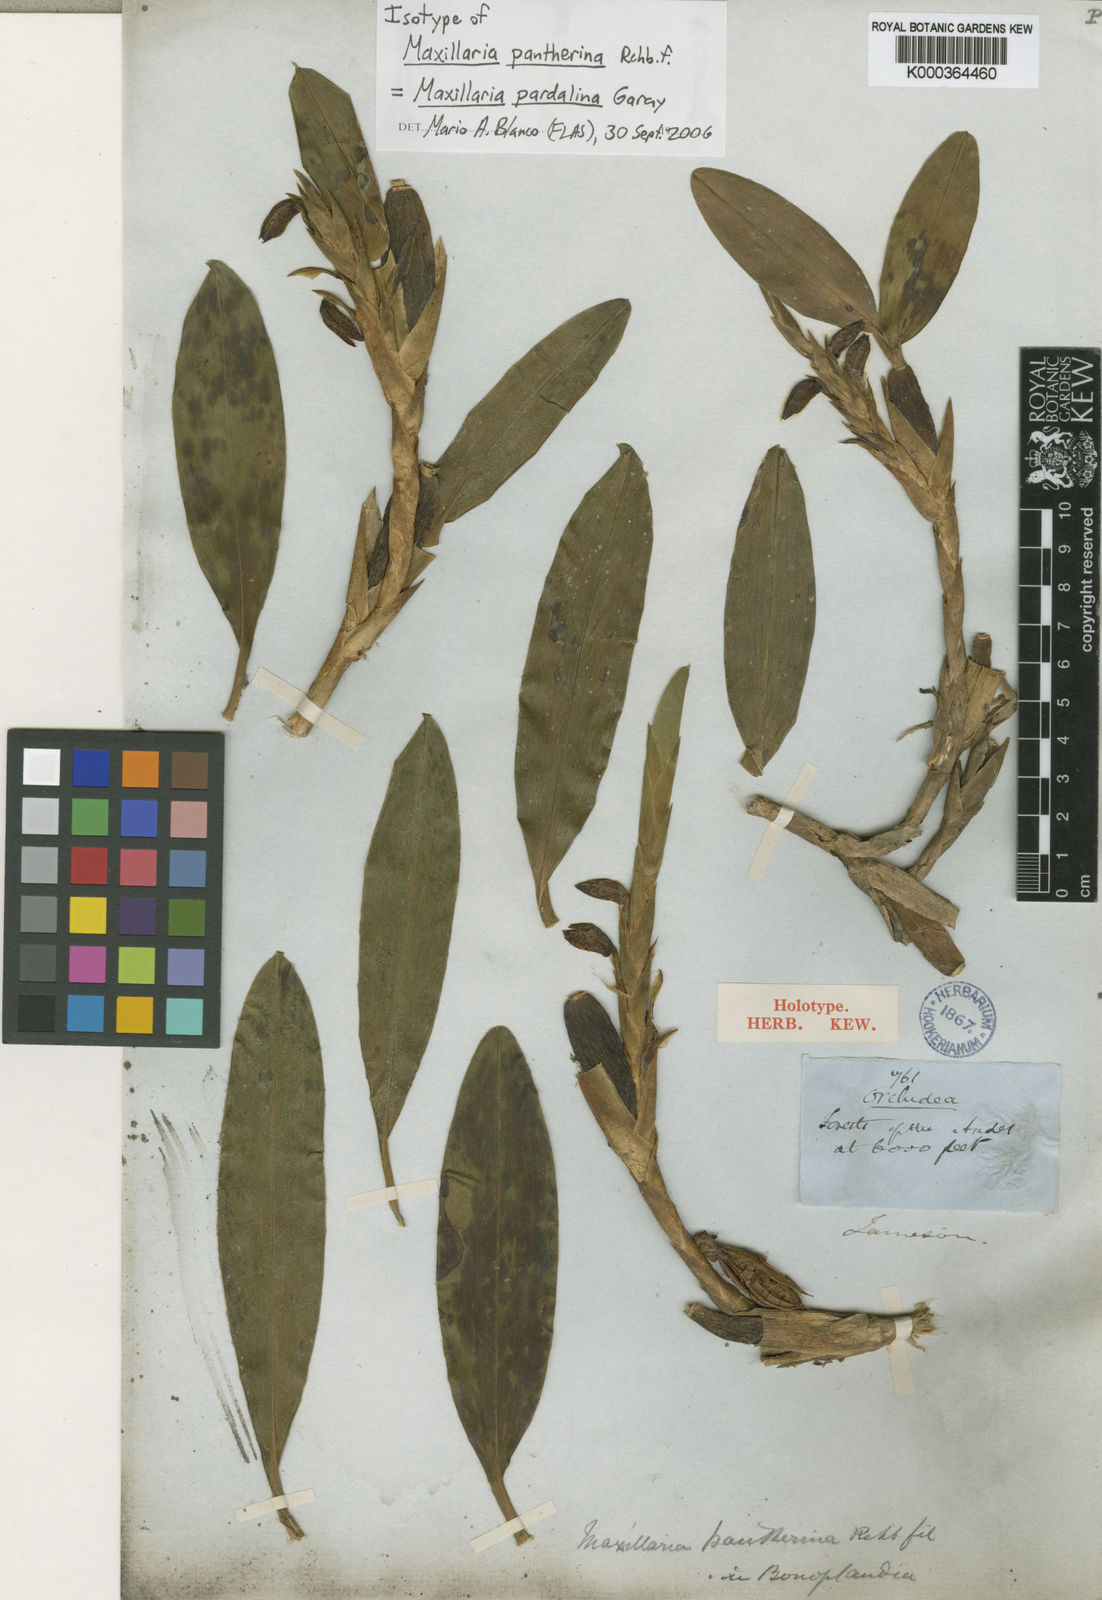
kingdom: Plantae
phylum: Tracheophyta
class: Liliopsida
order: Asparagales
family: Orchidaceae
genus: Maxillaria
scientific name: Maxillaria pardalina
